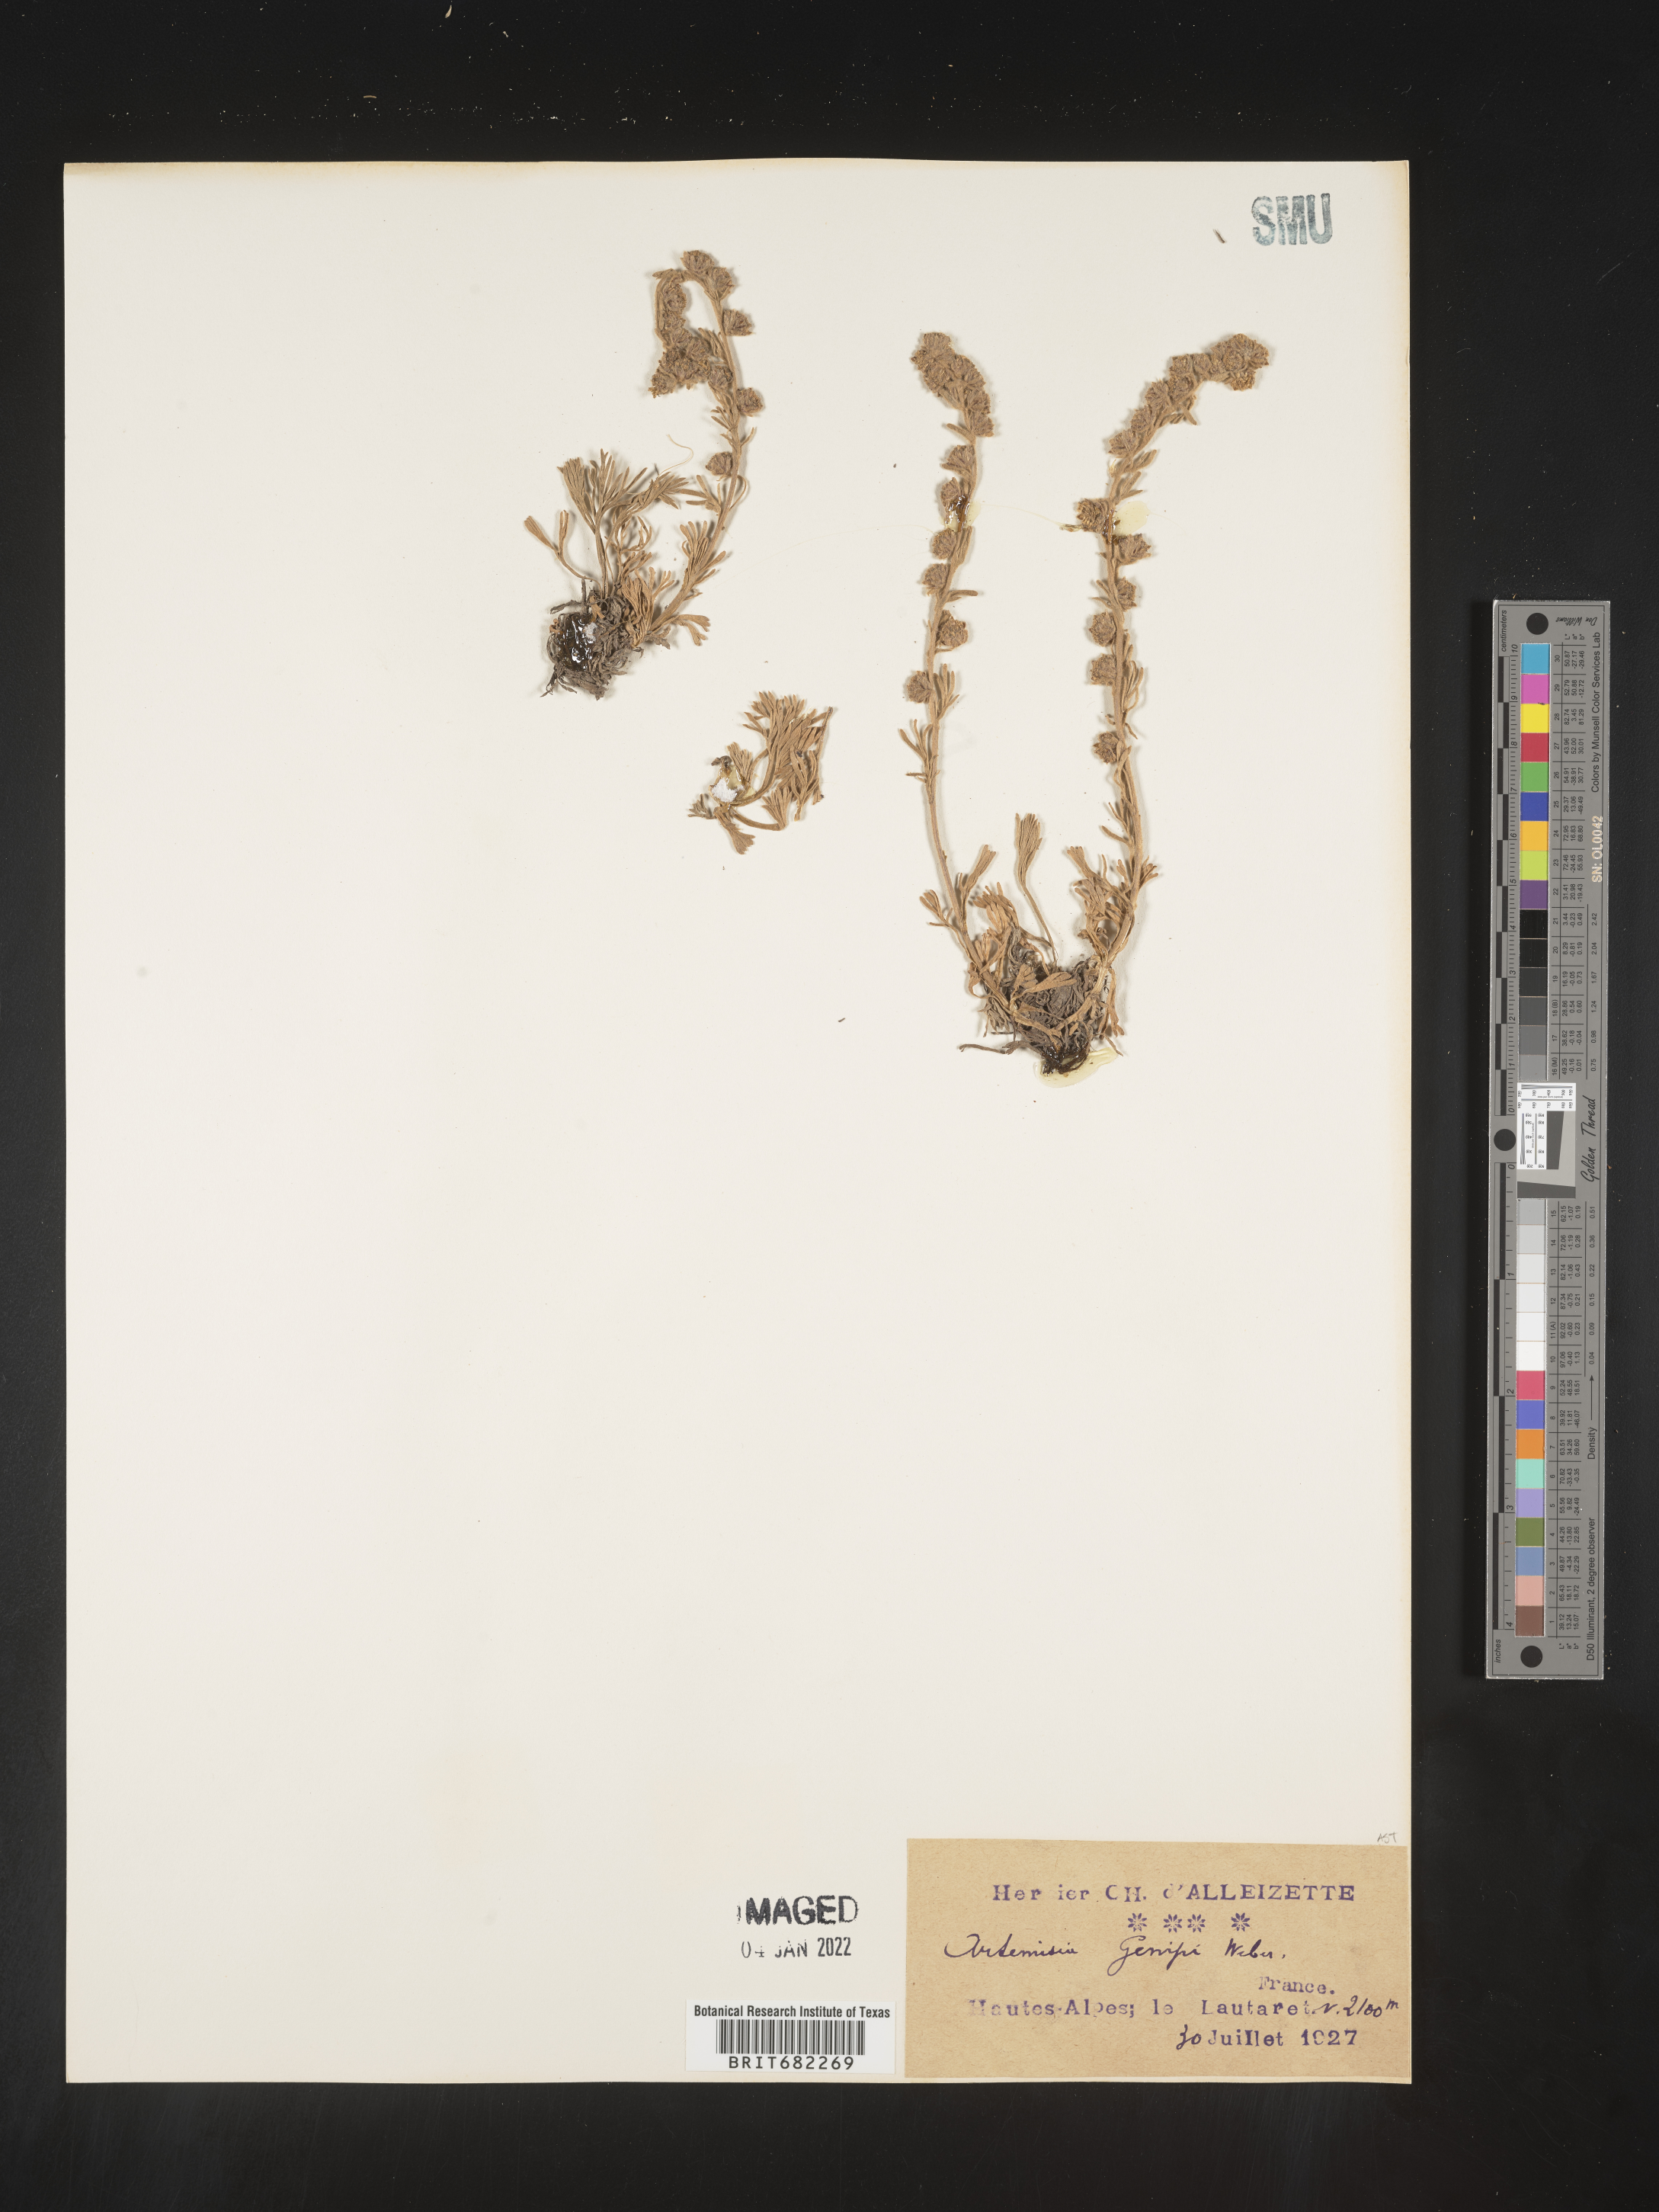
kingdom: Plantae
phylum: Tracheophyta
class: Magnoliopsida
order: Asterales
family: Asteraceae
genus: Artemisia
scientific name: Artemisia
